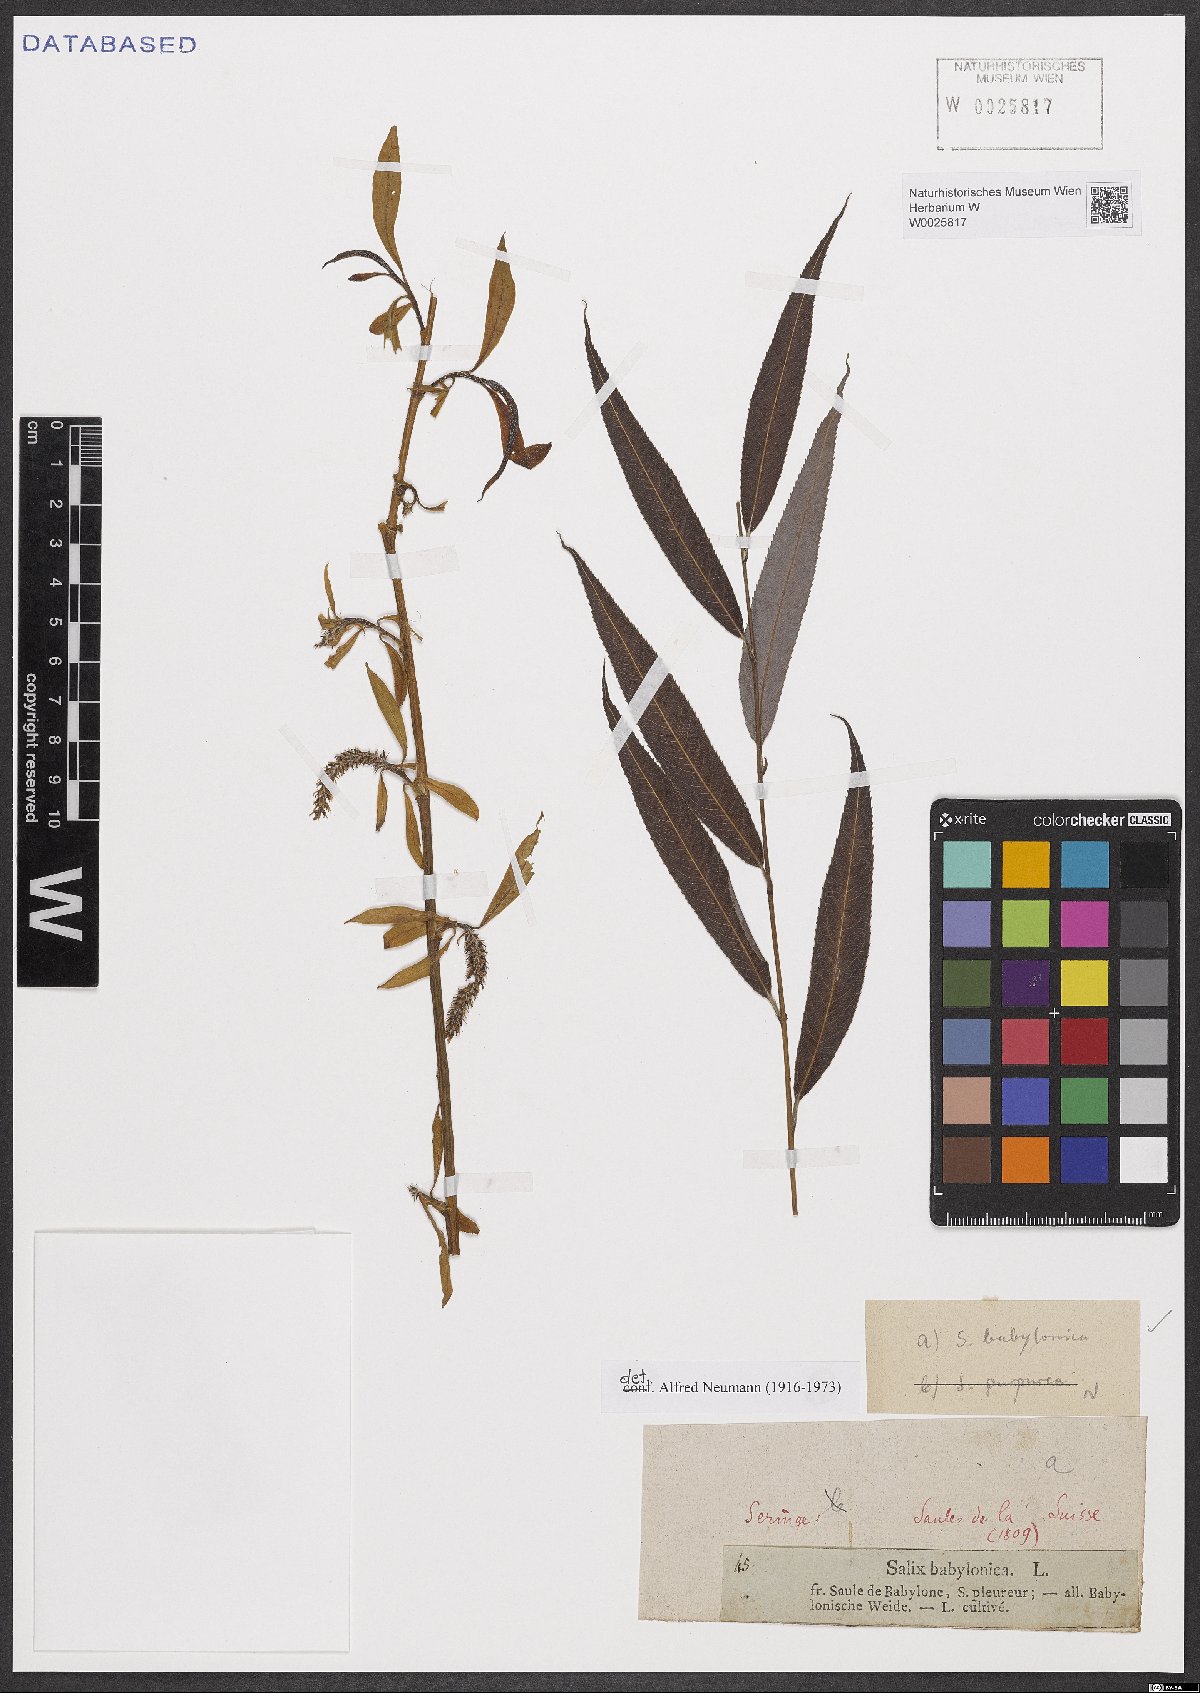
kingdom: Plantae
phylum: Tracheophyta
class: Magnoliopsida
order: Malpighiales
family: Salicaceae
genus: Salix
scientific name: Salix babylonica
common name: Weeping willow
